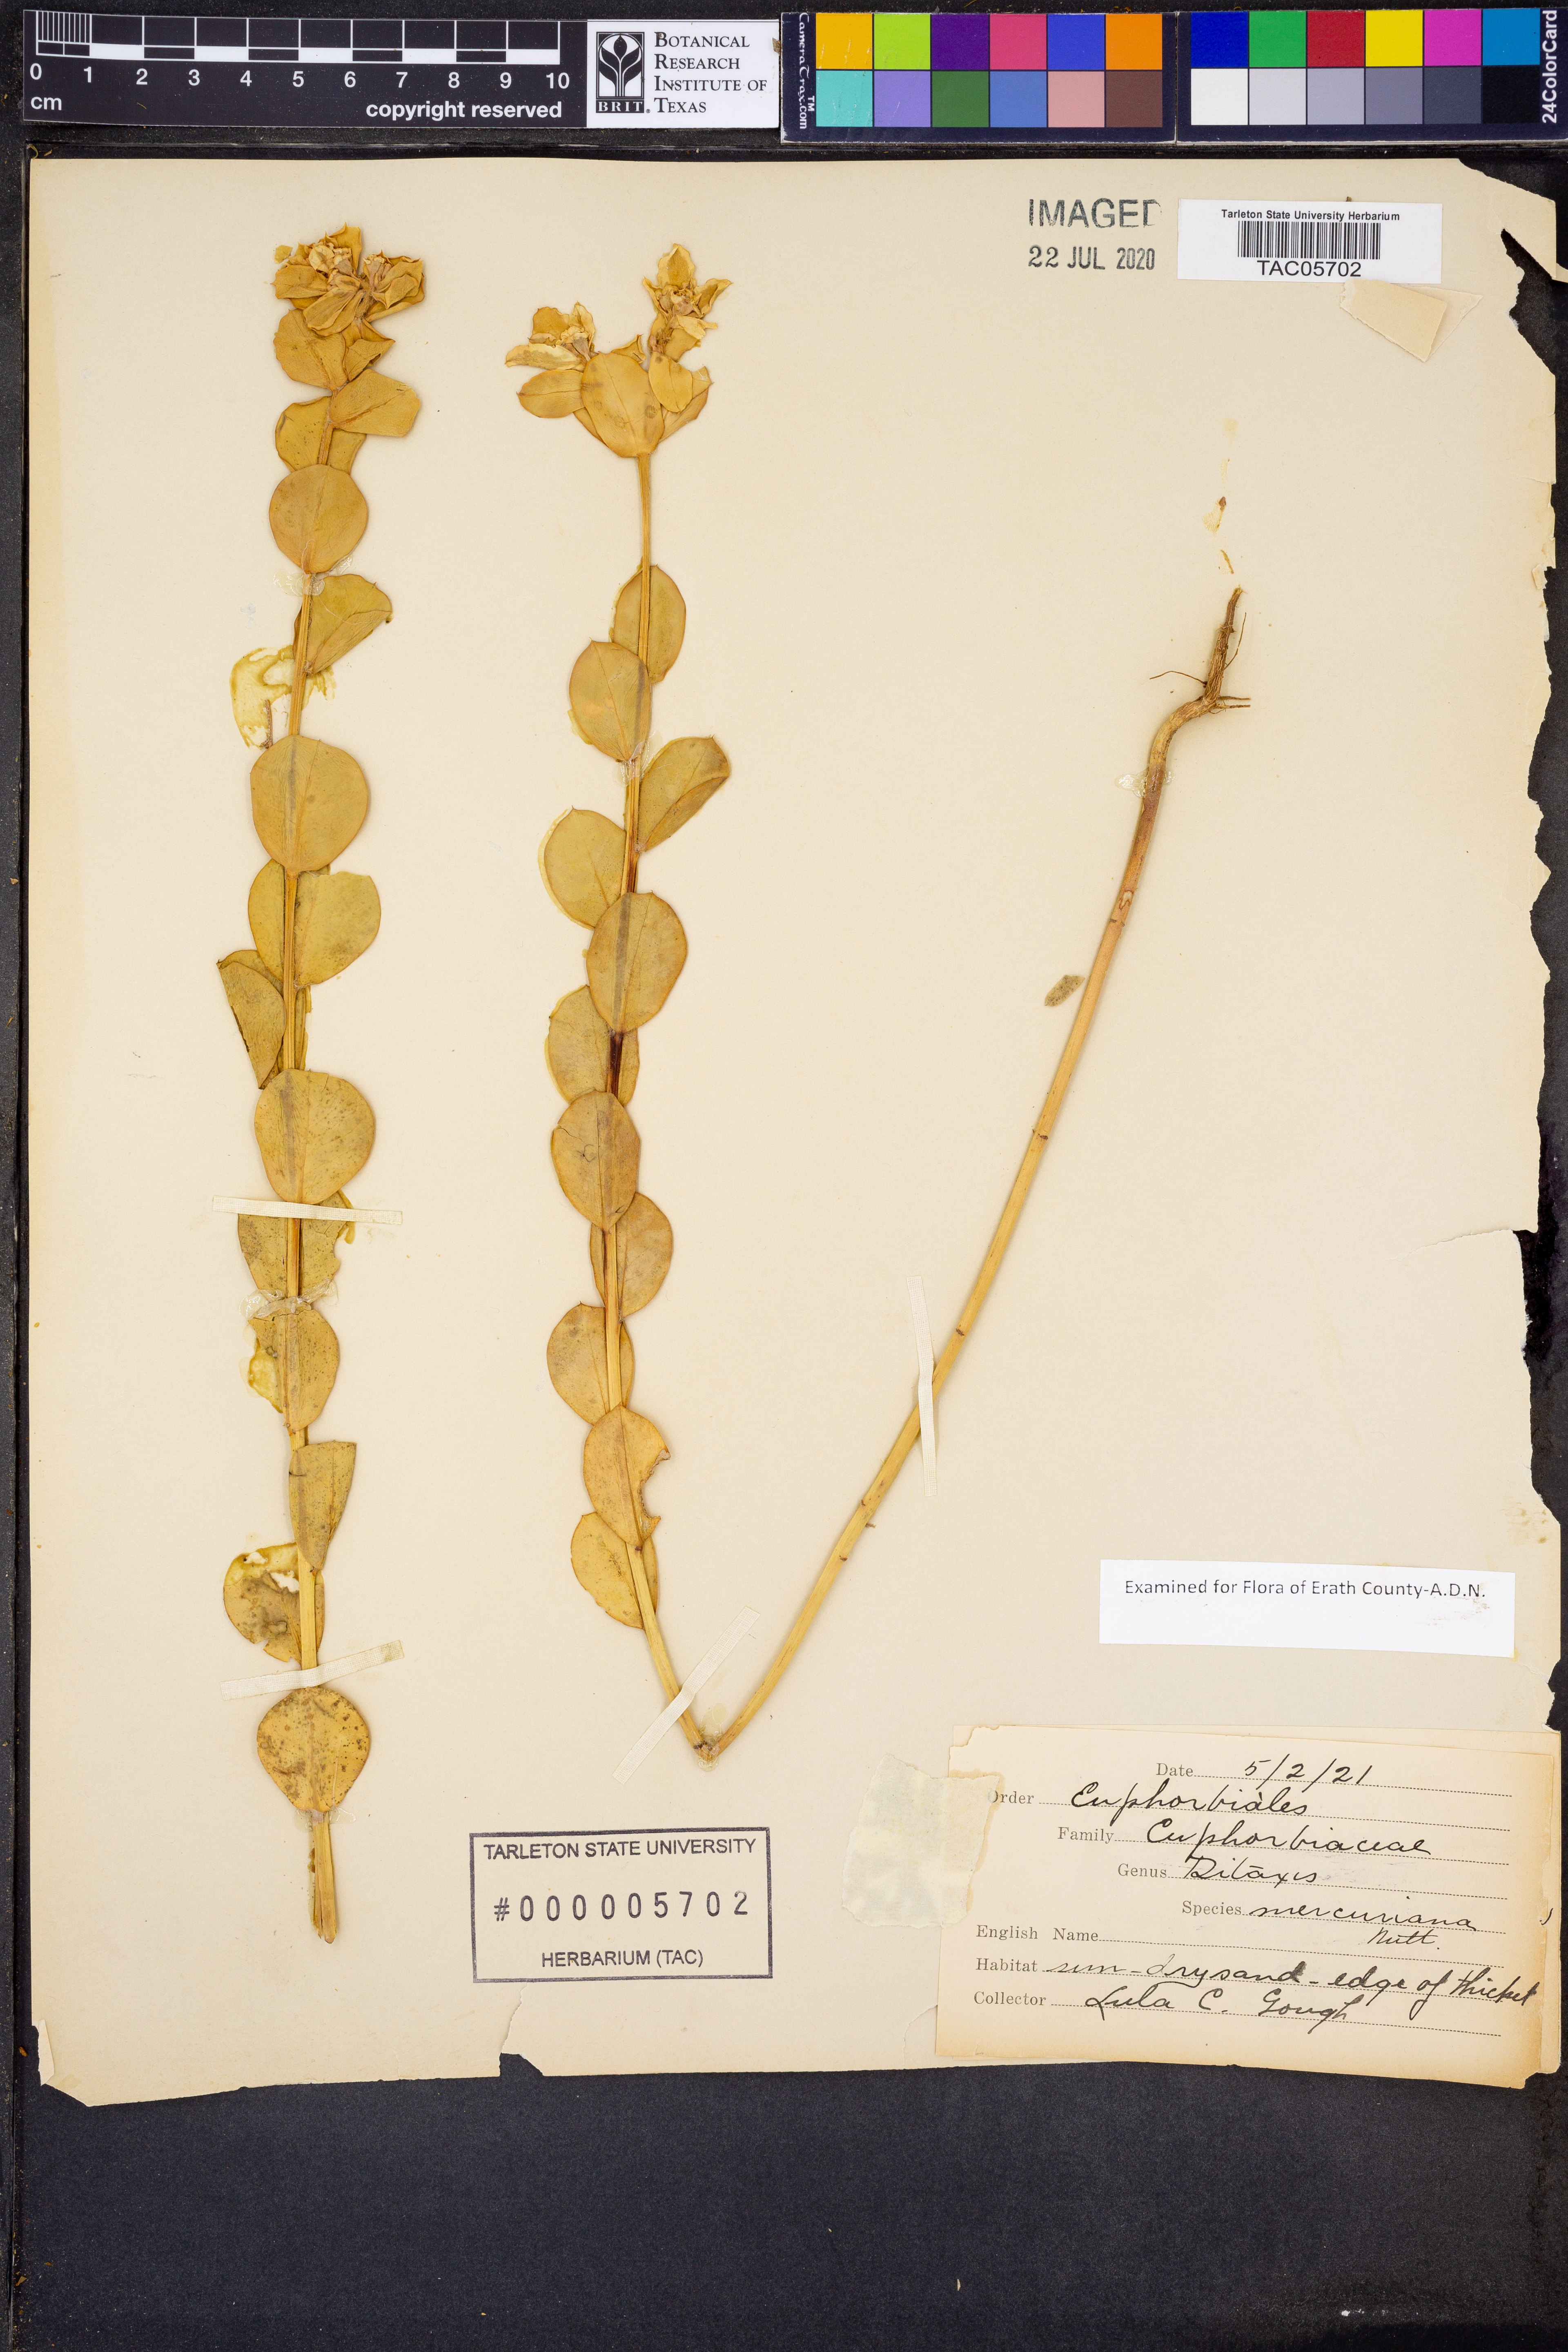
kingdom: Plantae
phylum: Tracheophyta
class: Magnoliopsida
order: Malpighiales
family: Euphorbiaceae
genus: Ditaxis
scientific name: Ditaxis mercurialina
